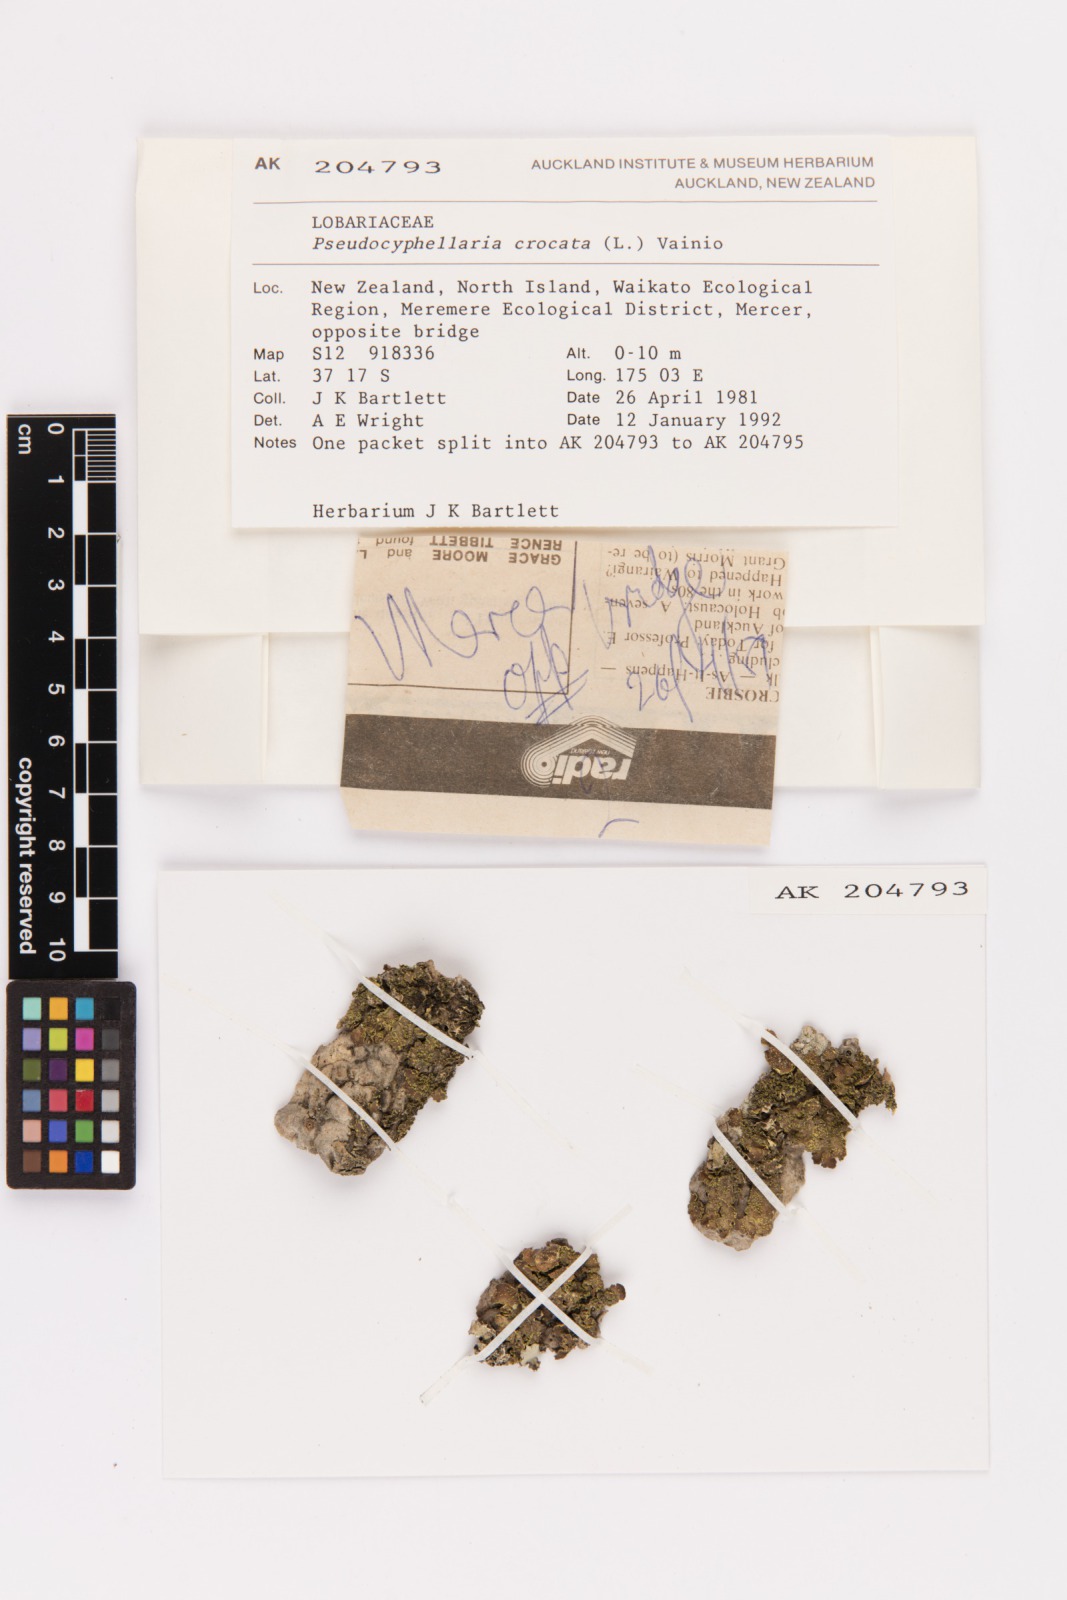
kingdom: Fungi
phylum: Ascomycota
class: Lecanoromycetes
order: Peltigerales
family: Lobariaceae
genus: Pseudocyphellaria
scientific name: Pseudocyphellaria crocata
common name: Golden specklebelly
